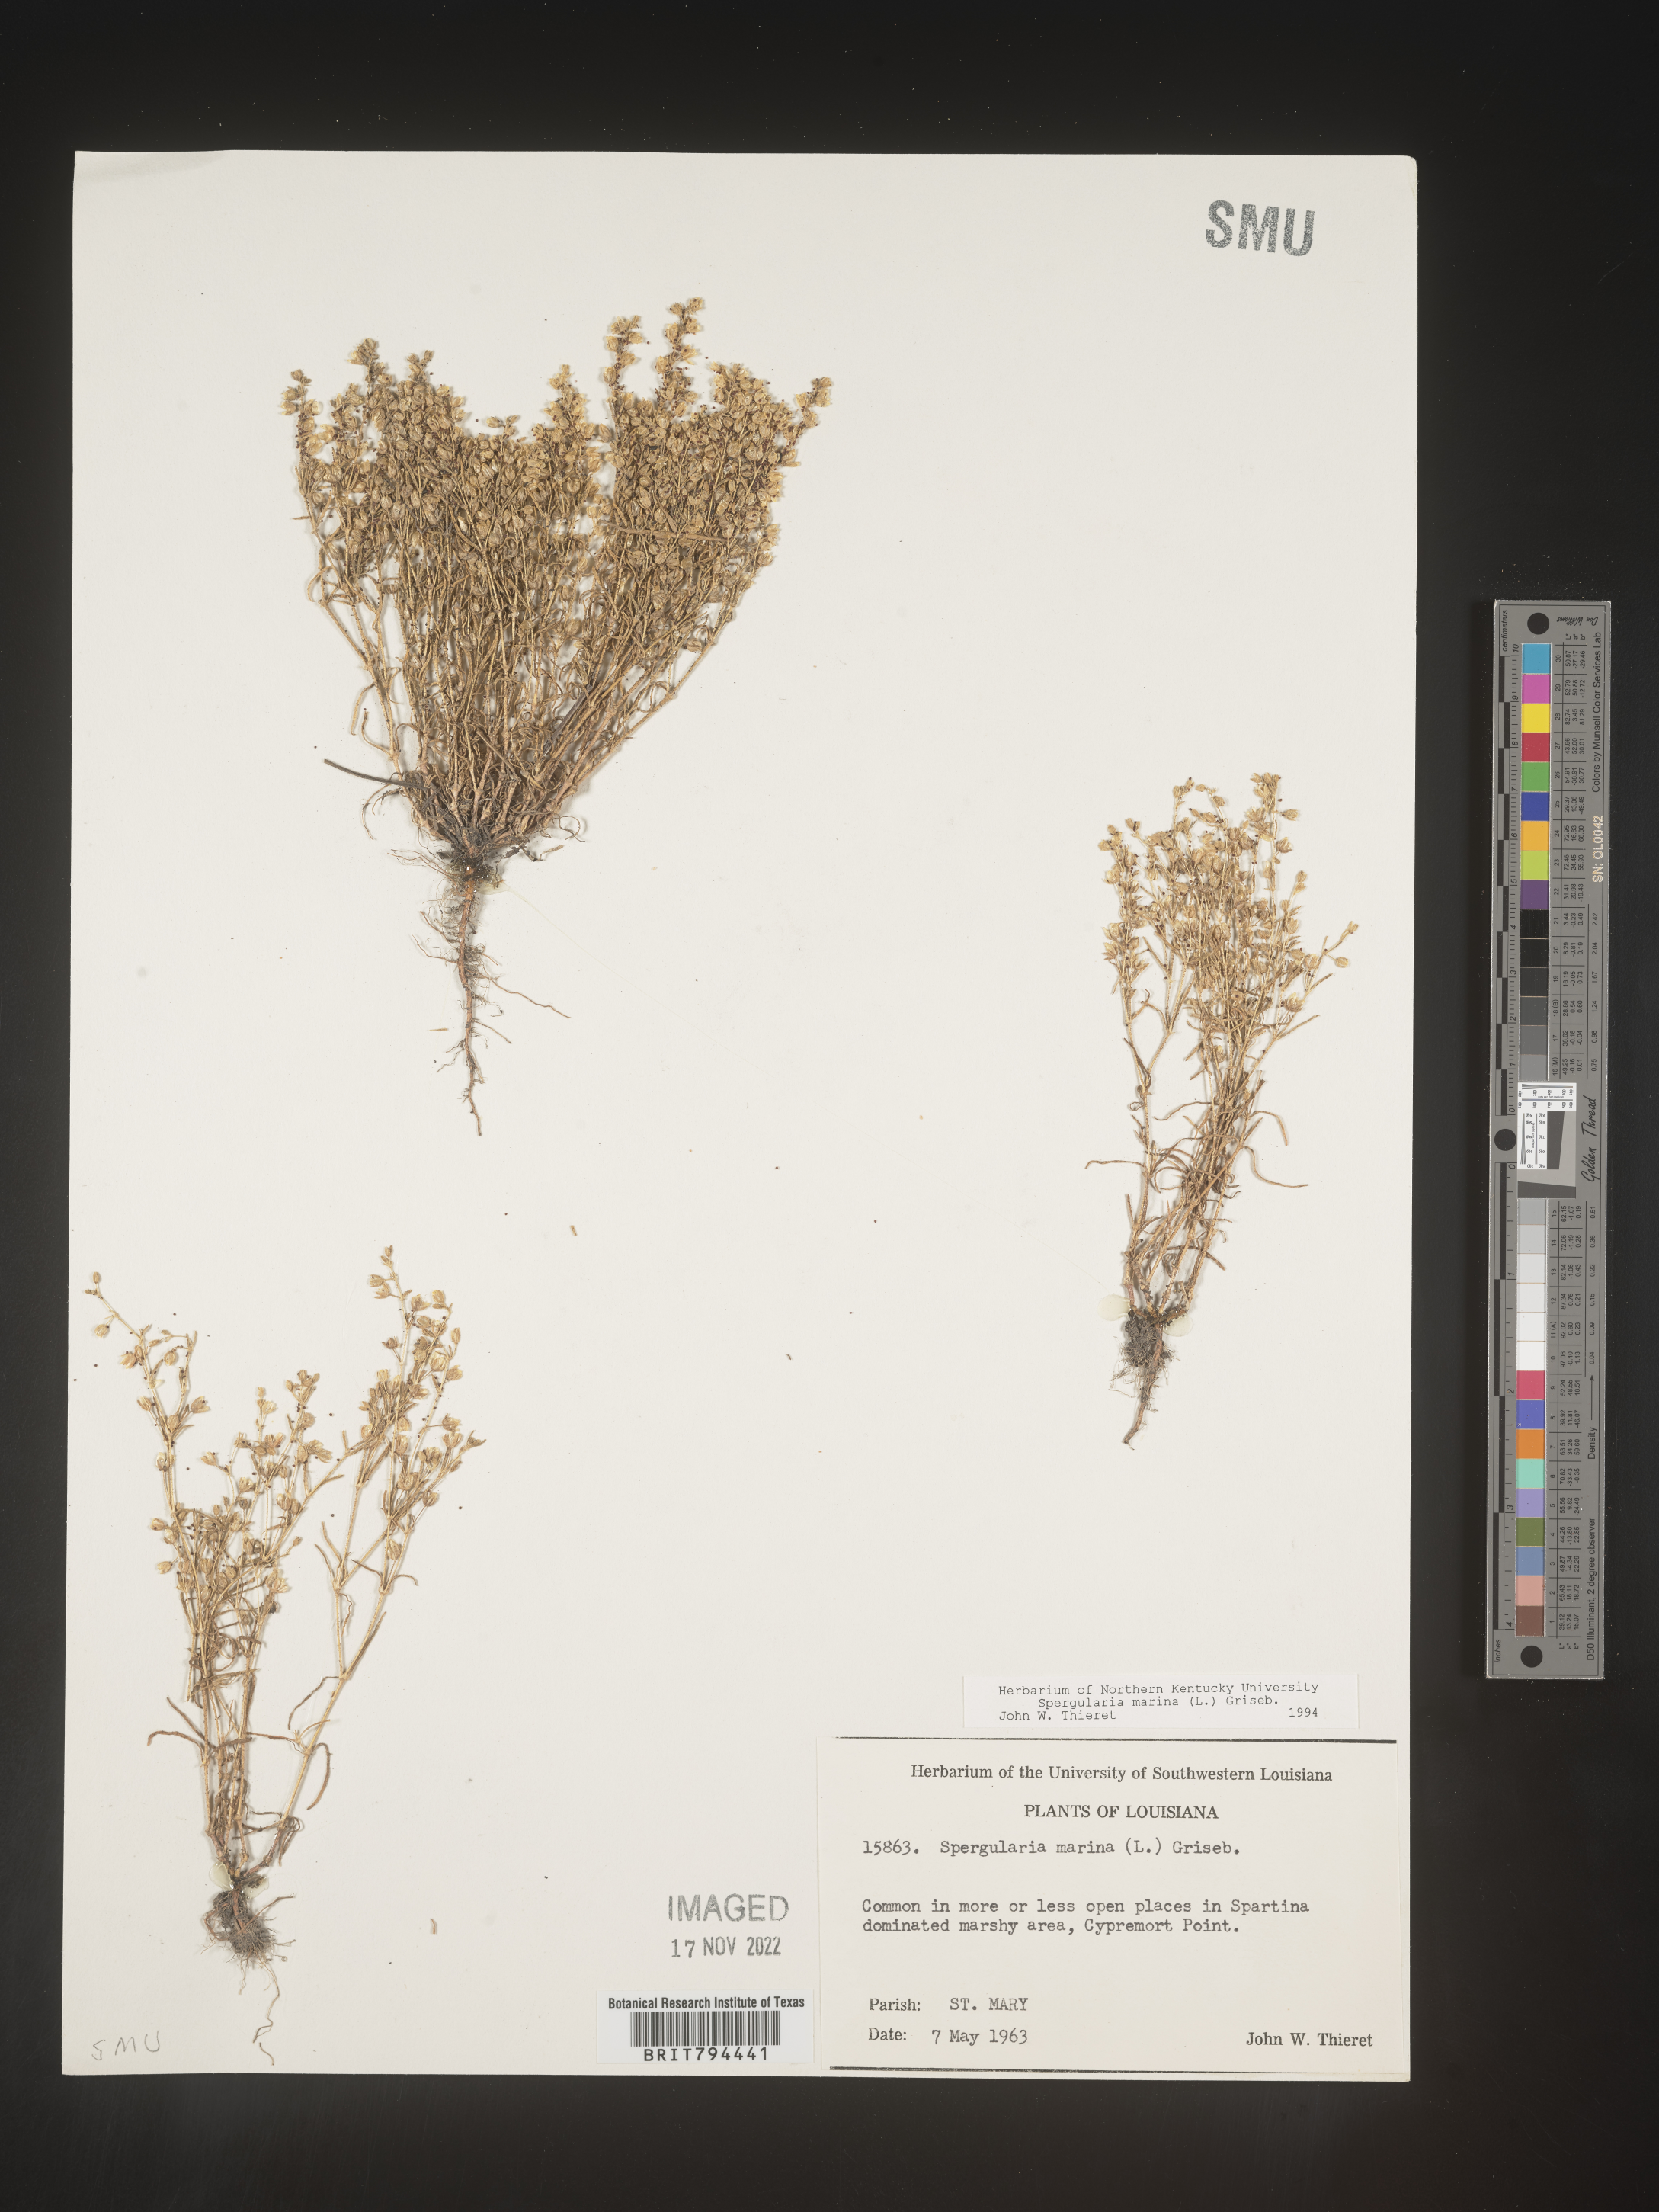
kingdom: Plantae
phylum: Tracheophyta
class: Magnoliopsida
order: Caryophyllales
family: Caryophyllaceae
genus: Spergularia
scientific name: Spergularia marina
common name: Lesser sea-spurrey
